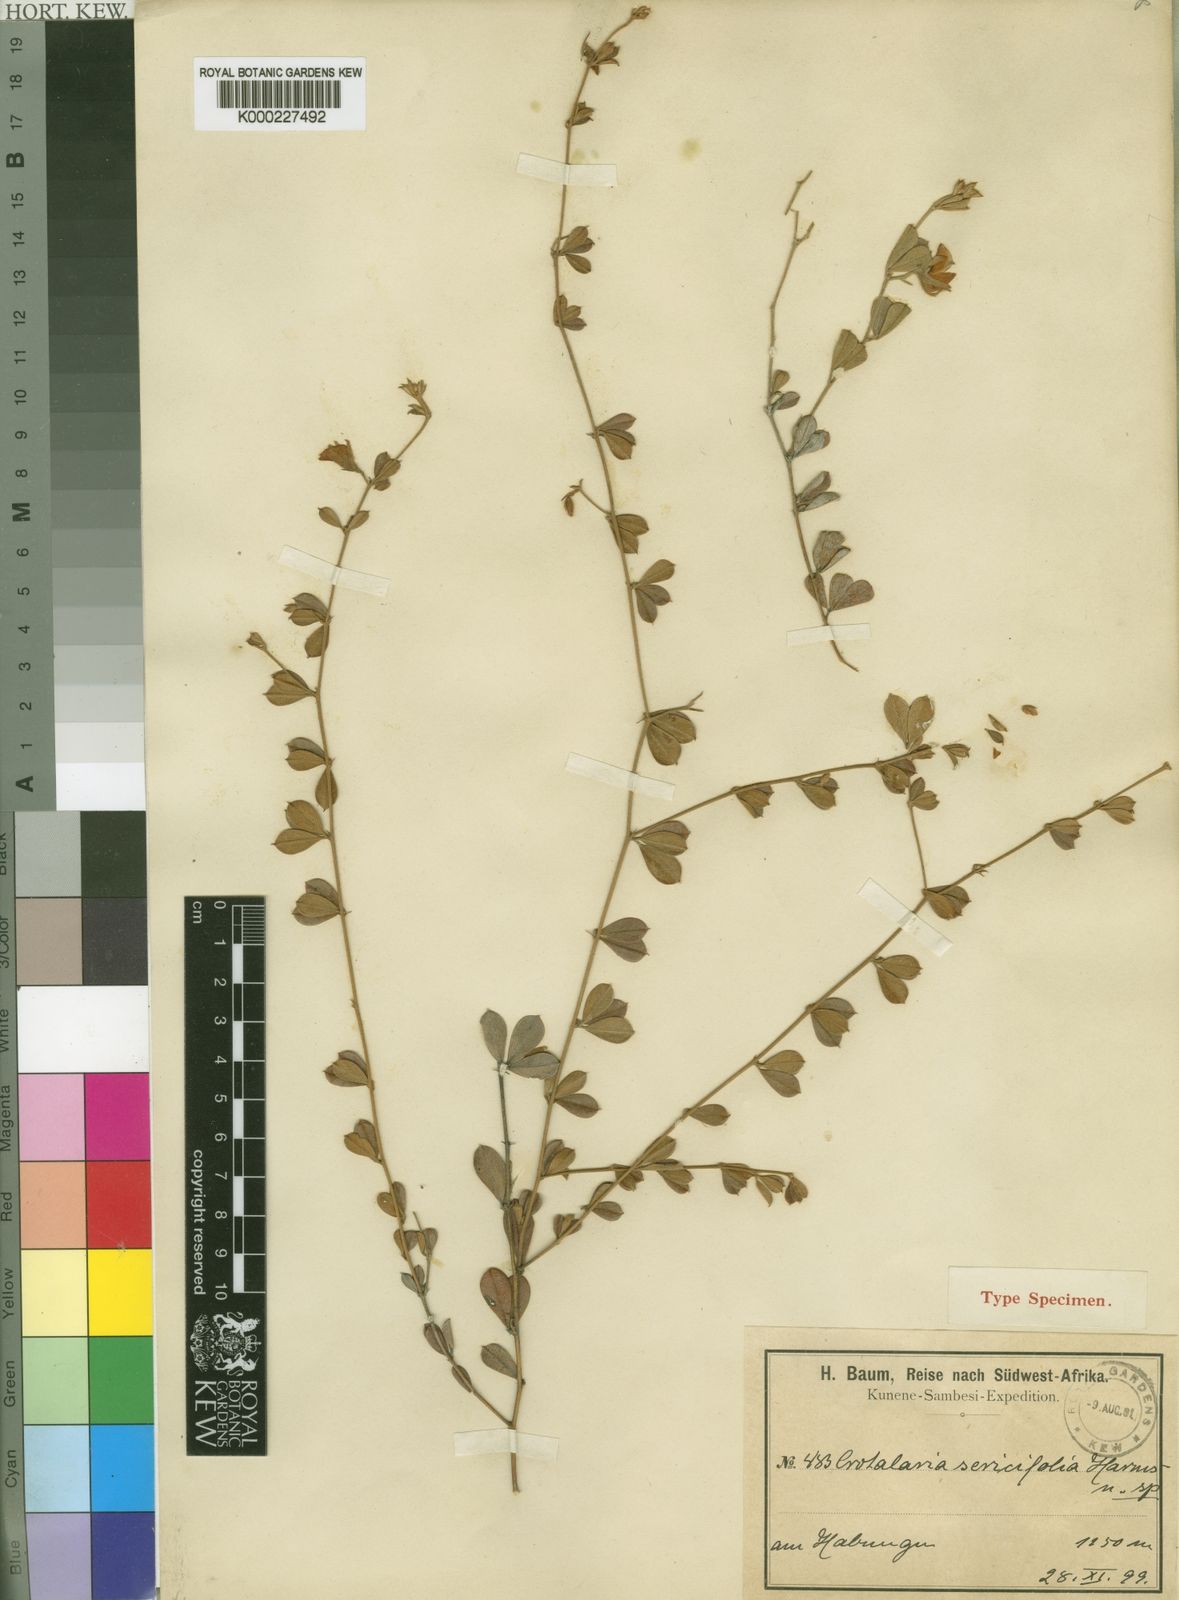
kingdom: Plantae
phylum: Tracheophyta
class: Magnoliopsida
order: Fabales
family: Fabaceae
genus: Crotalaria
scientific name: Crotalaria sericifolia
